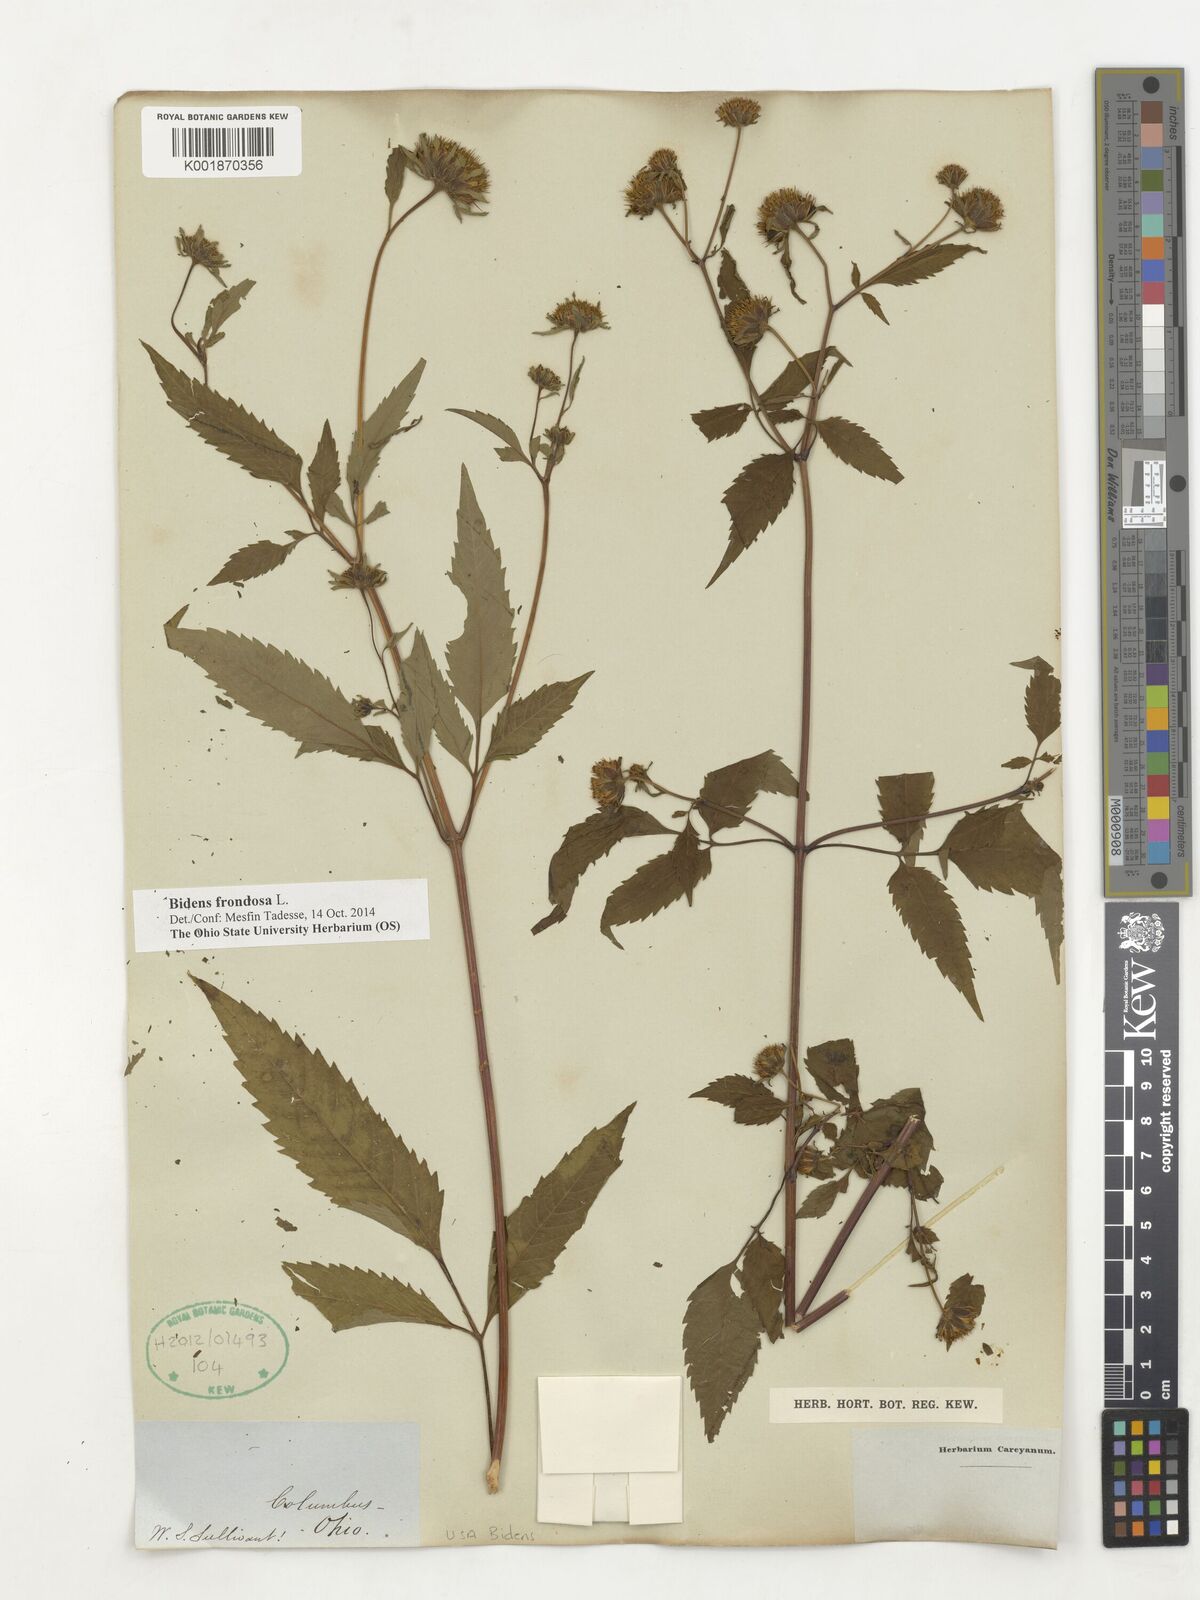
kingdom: Plantae
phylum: Tracheophyta
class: Magnoliopsida
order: Asterales
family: Asteraceae
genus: Bidens
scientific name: Bidens frondosa
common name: Beggarticks
